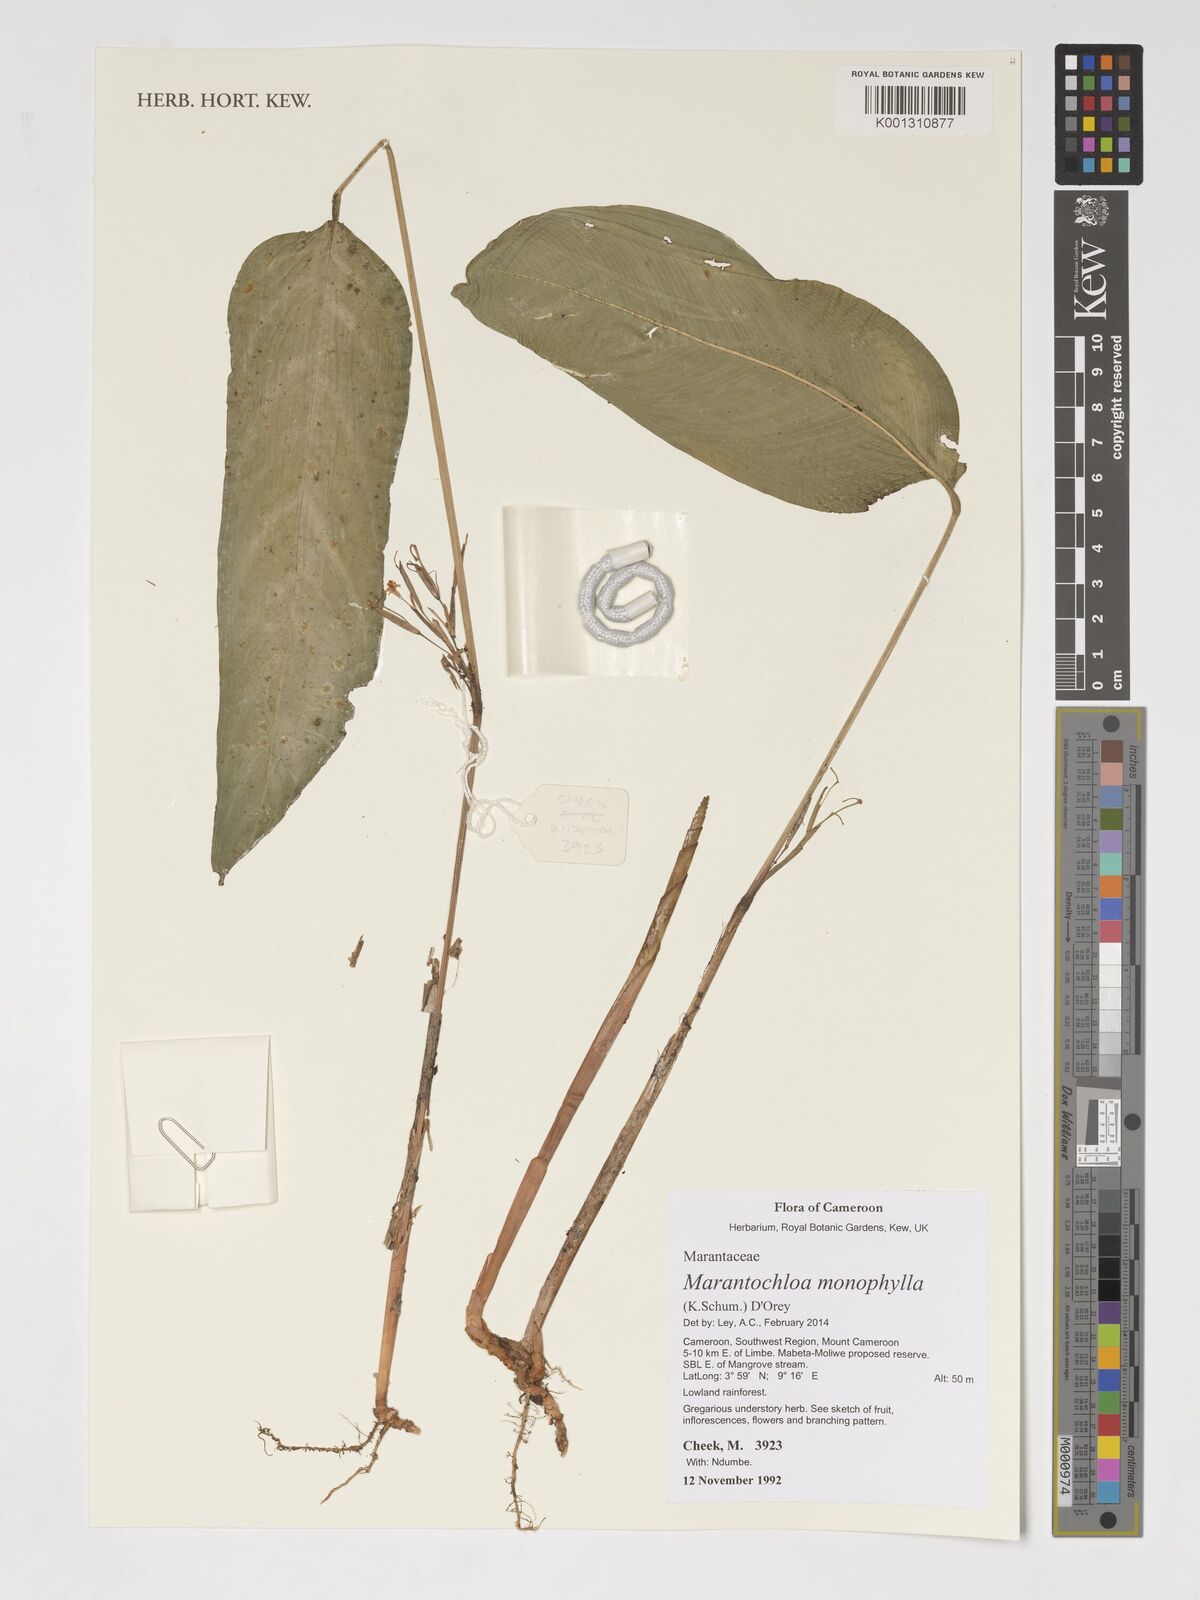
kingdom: Plantae
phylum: Tracheophyta
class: Liliopsida
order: Zingiberales
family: Marantaceae
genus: Marantochloa
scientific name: Marantochloa monophylla
